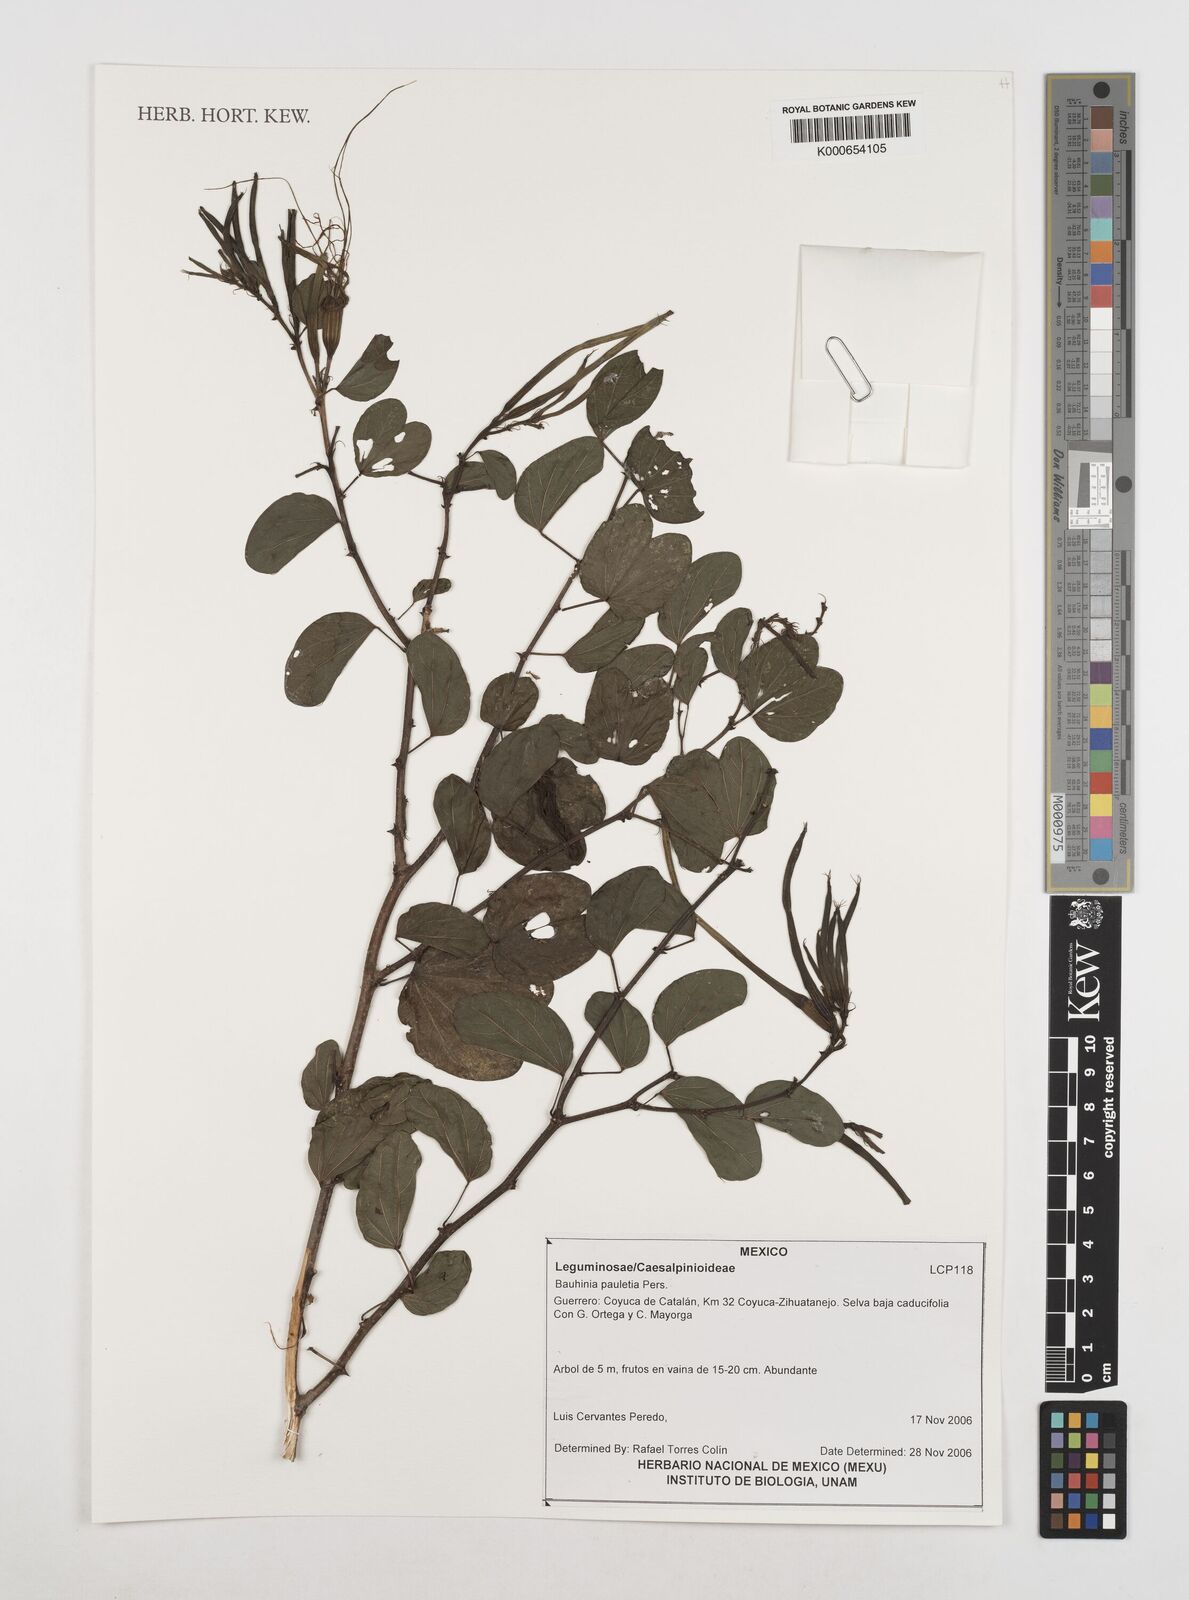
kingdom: Plantae
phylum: Tracheophyta
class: Magnoliopsida
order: Fabales
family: Fabaceae
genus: Bauhinia
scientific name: Bauhinia pauletia
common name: Railway-fence bauhinia
